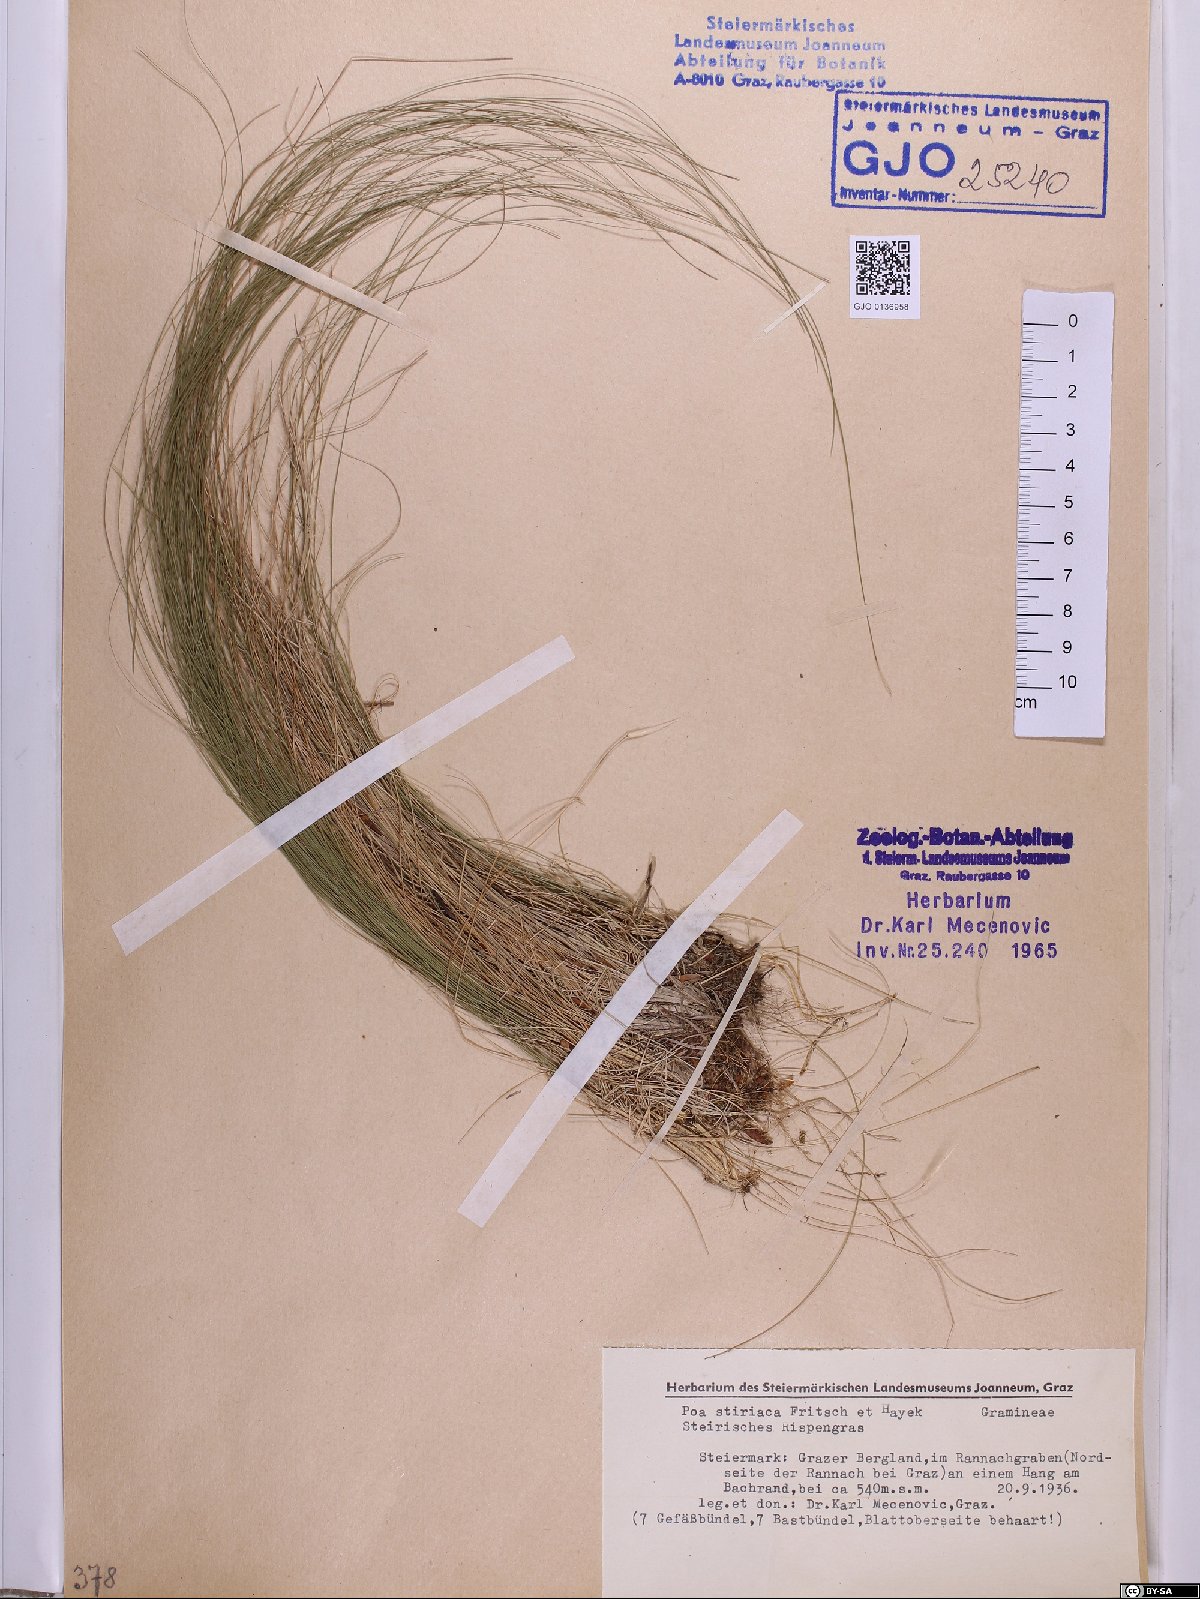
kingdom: Plantae
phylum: Tracheophyta
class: Liliopsida
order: Poales
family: Poaceae
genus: Poa
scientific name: Poa stiriaca
